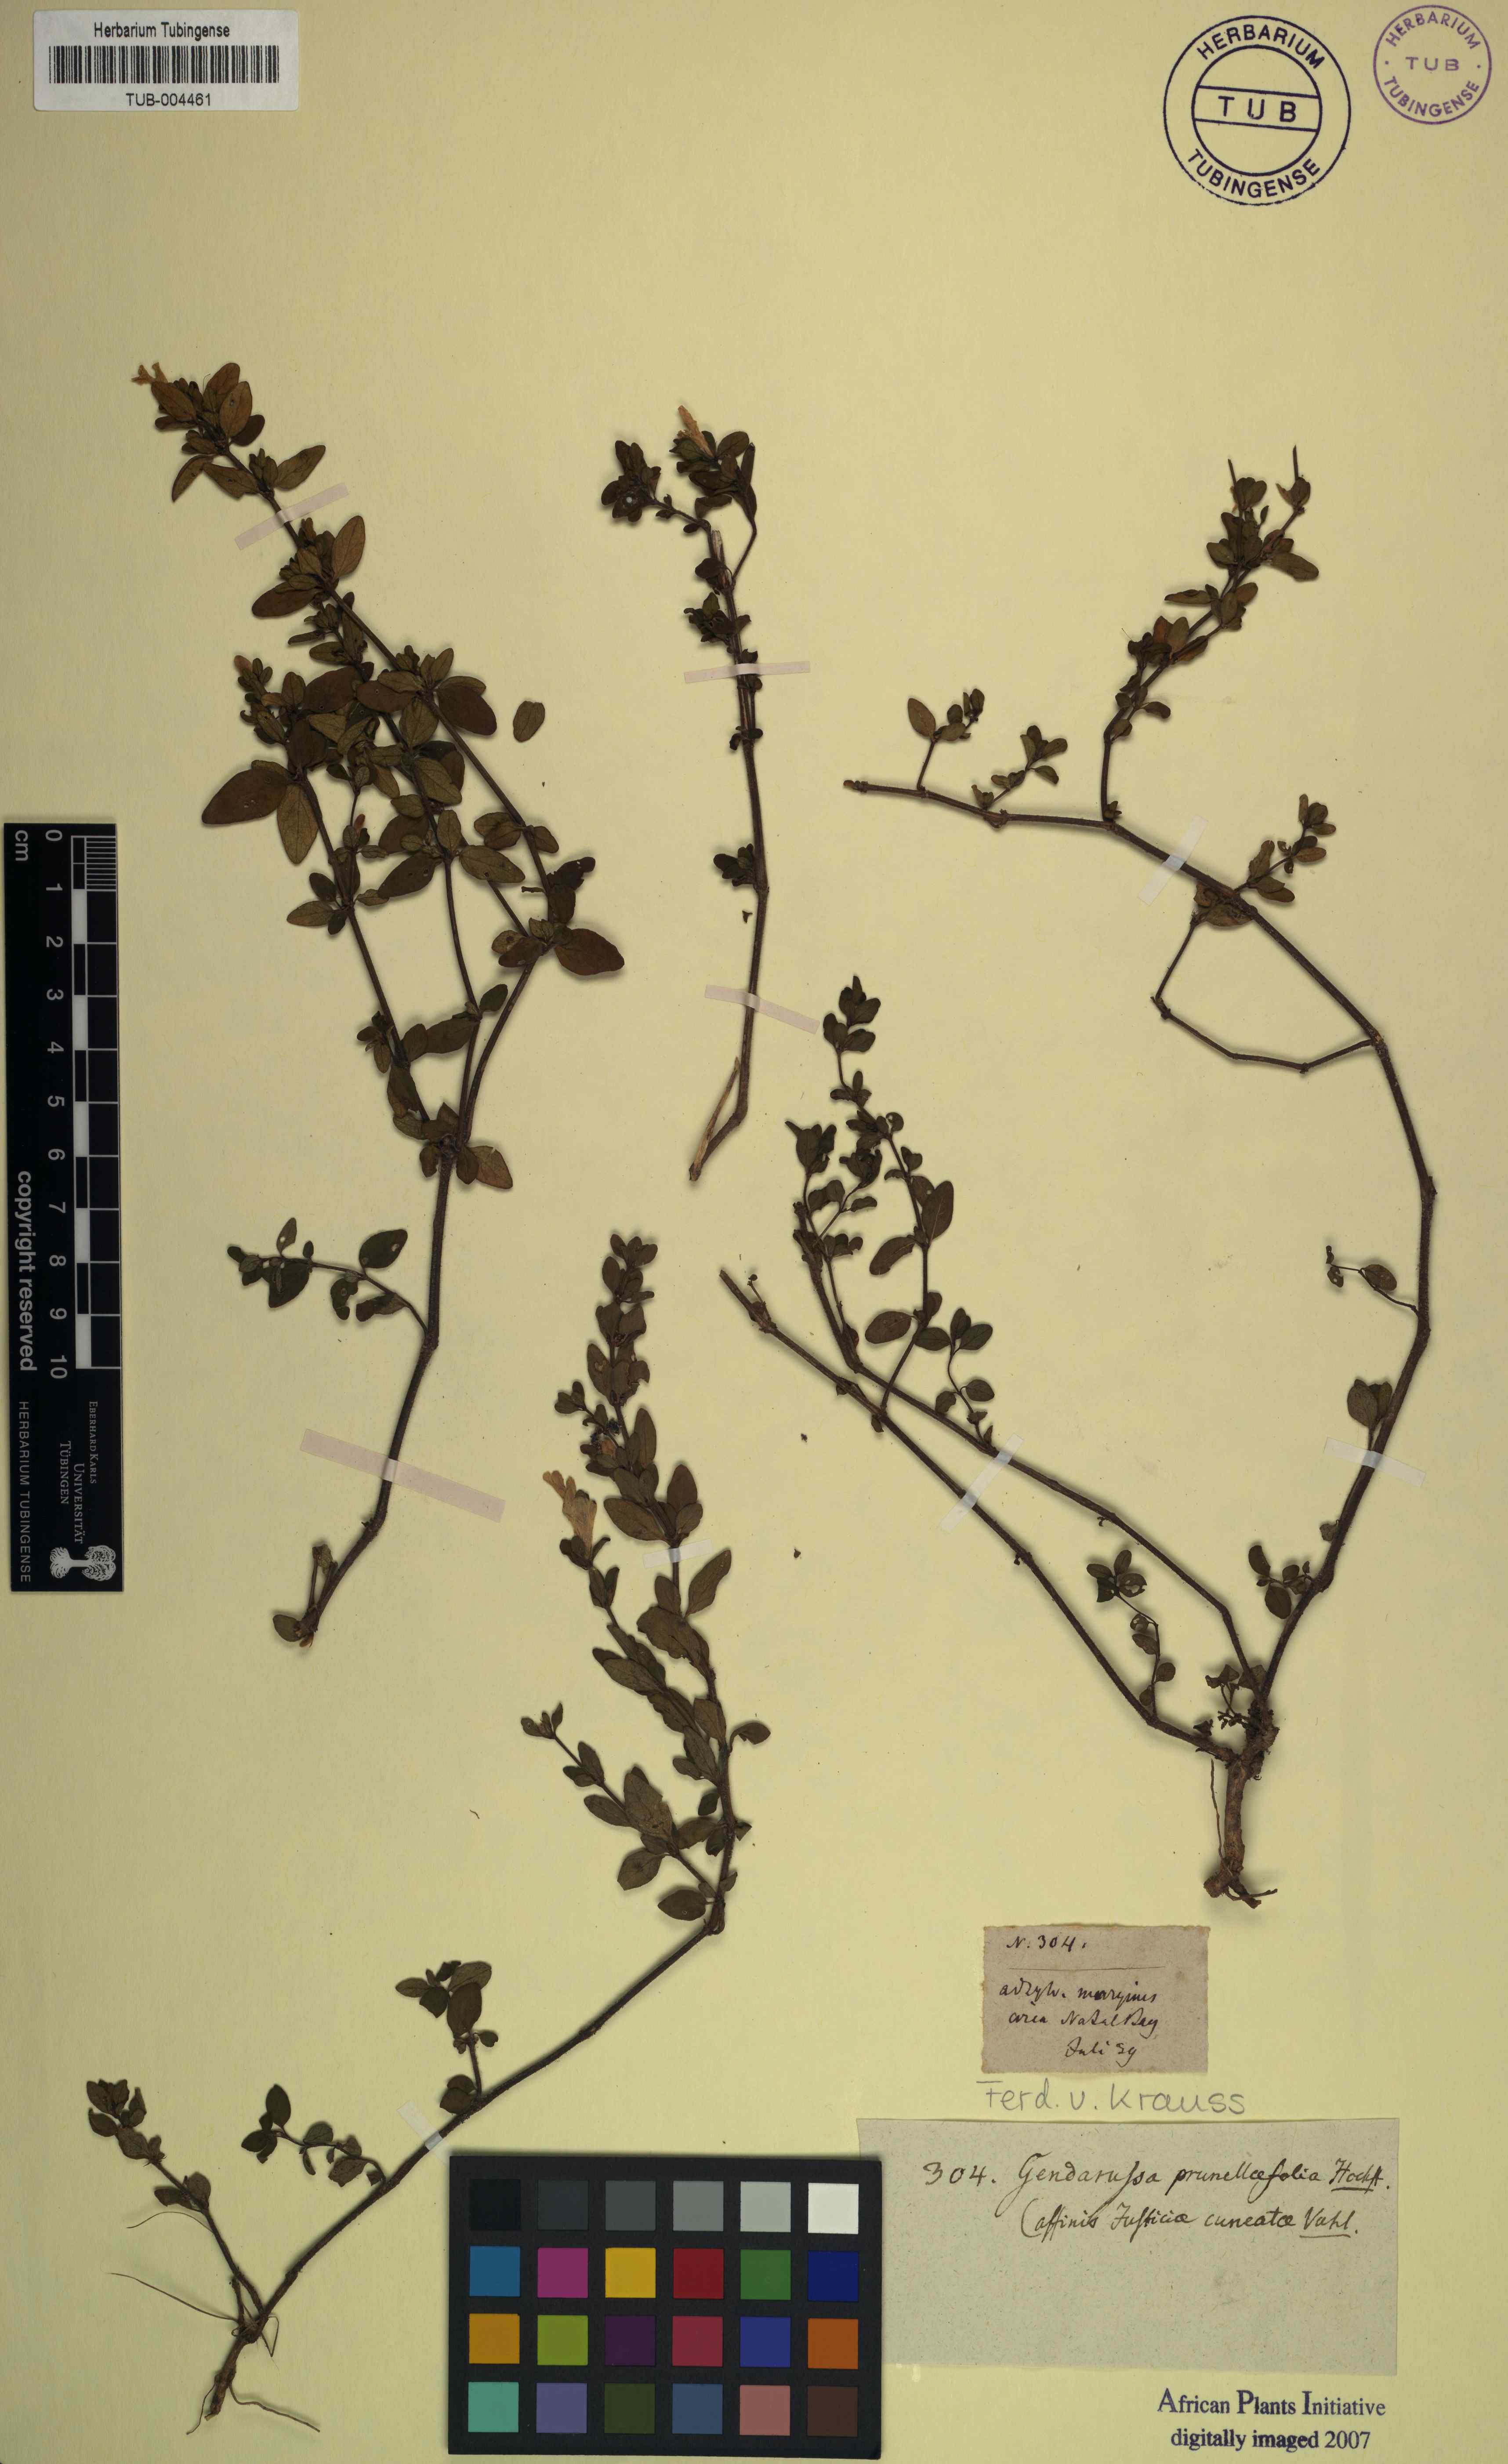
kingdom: Plantae
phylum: Tracheophyta
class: Magnoliopsida
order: Lamiales
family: Acanthaceae
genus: Justicia
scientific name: Justicia protracta
